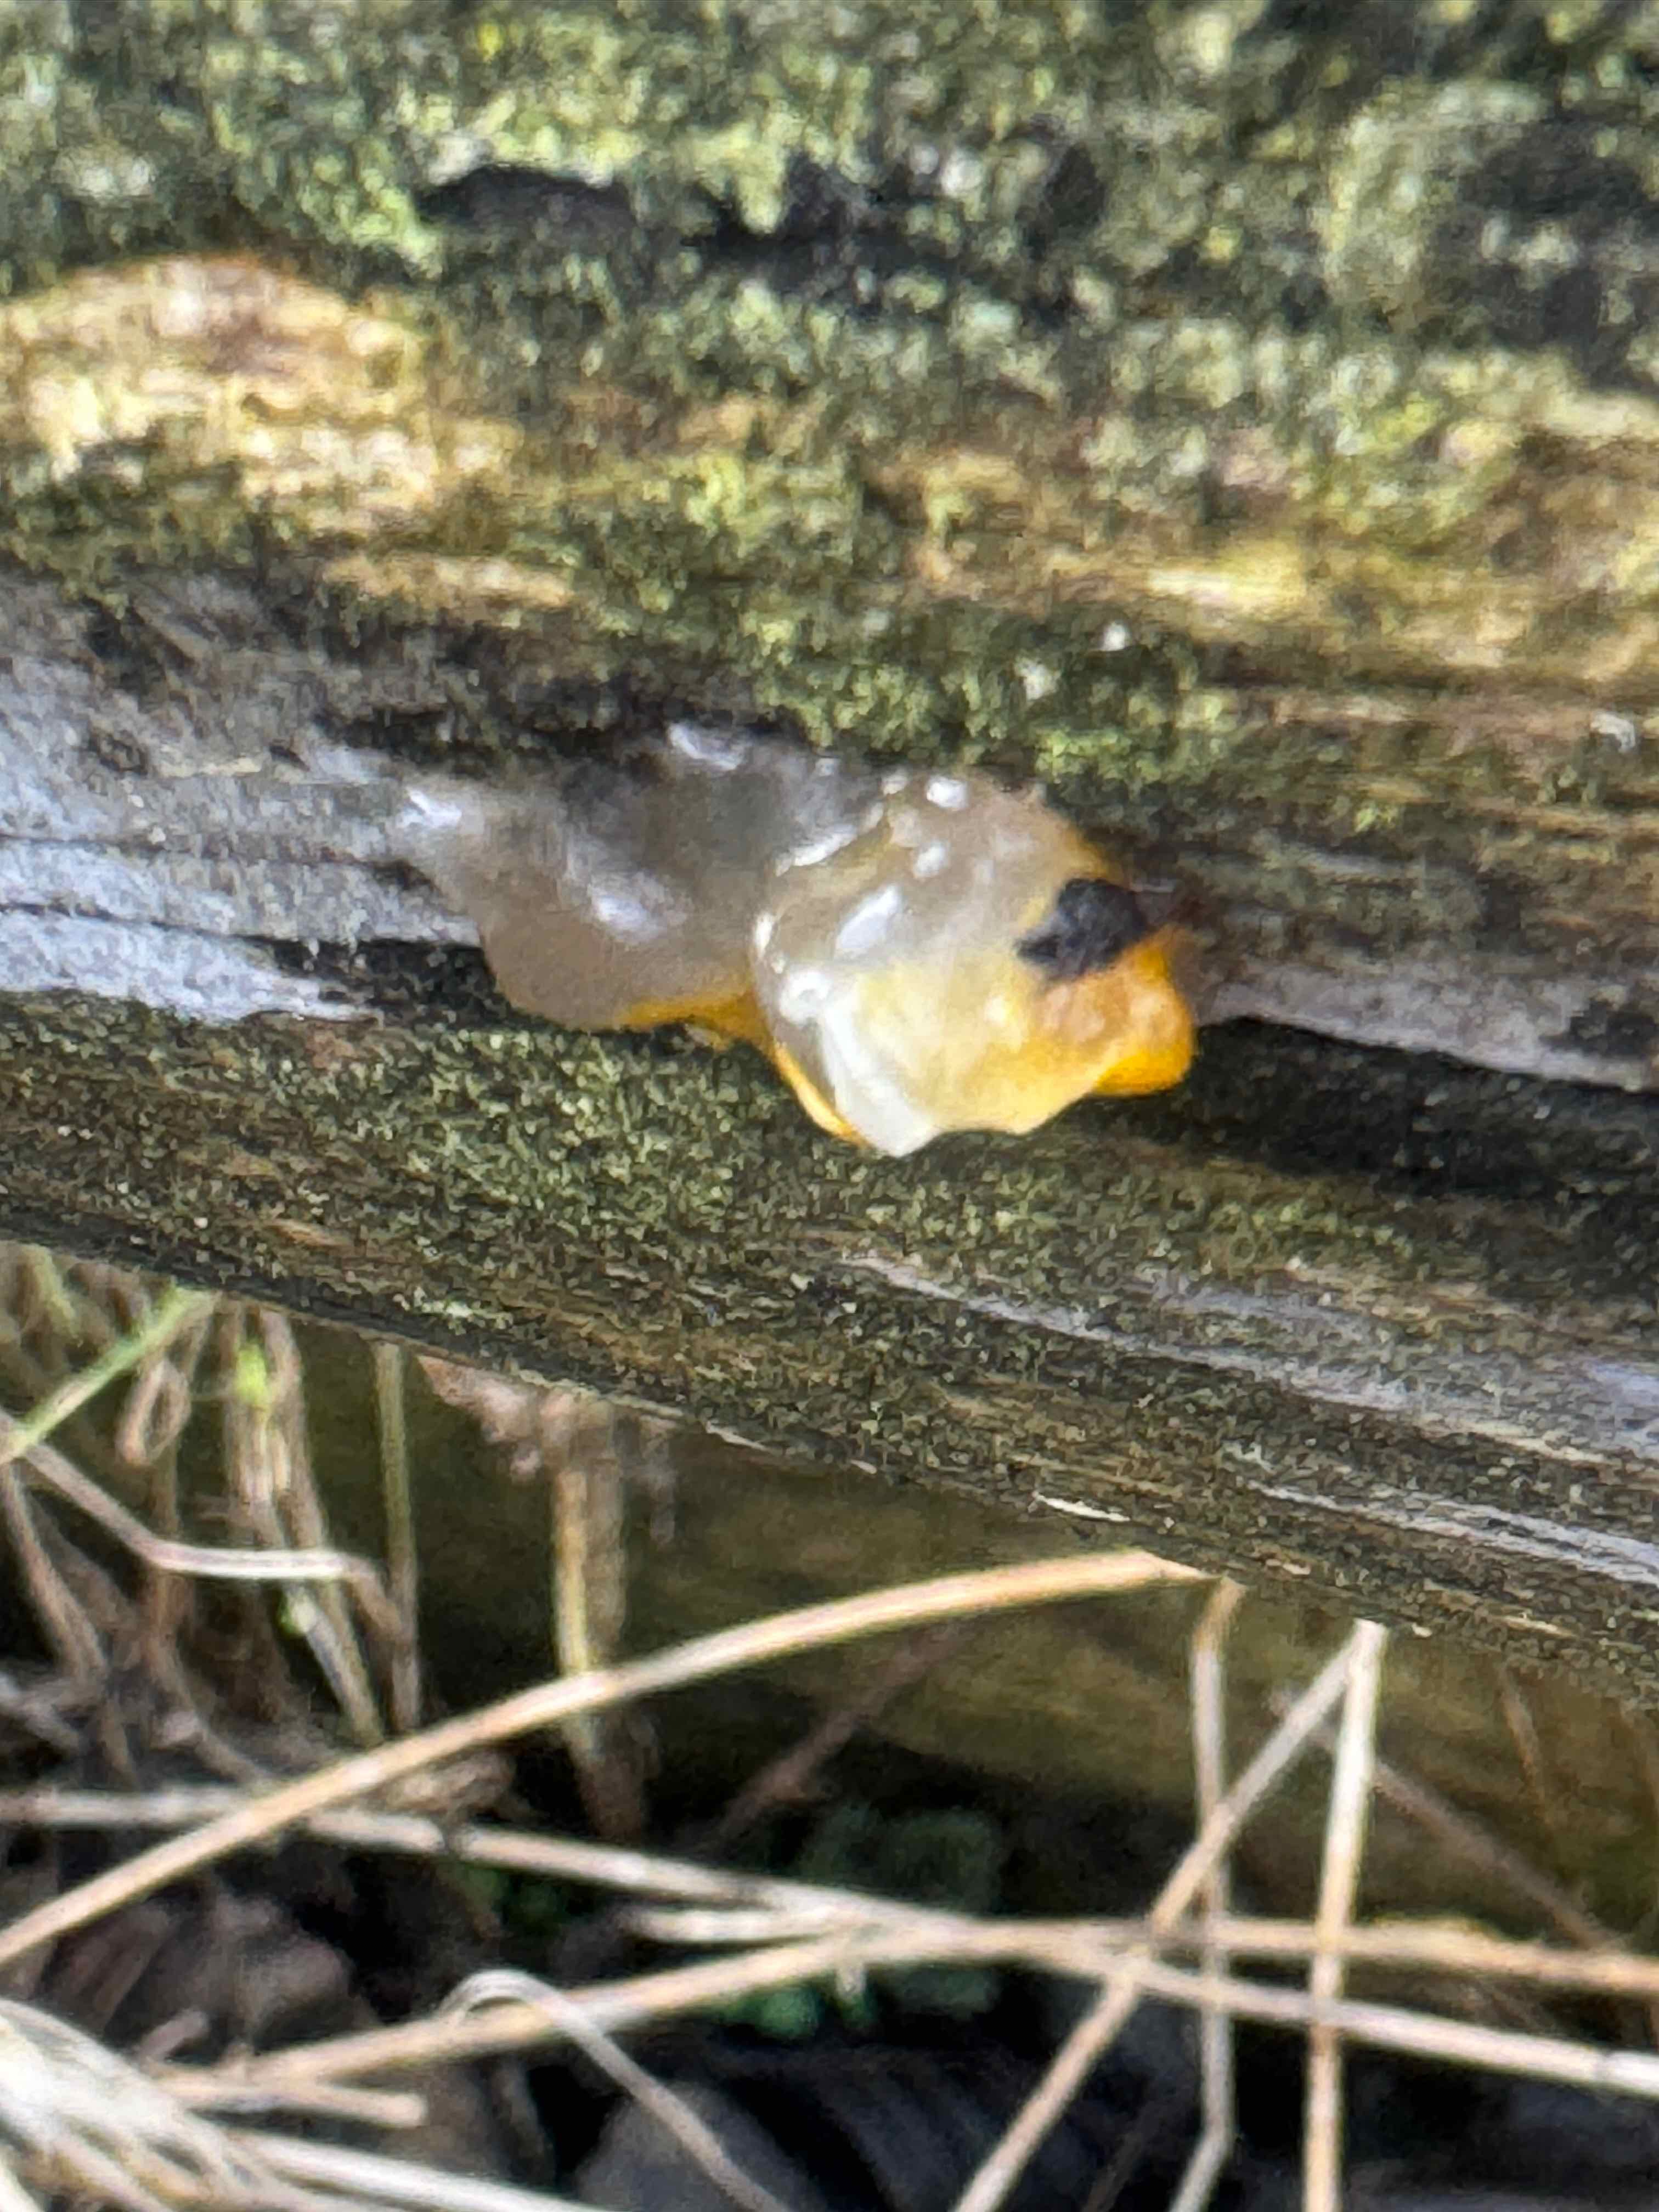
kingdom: Fungi
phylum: Basidiomycota
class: Agaricomycetes
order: Auriculariales
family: Hyaloriaceae
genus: Myxarium
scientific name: Myxarium nucleatum
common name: klar bævretop
